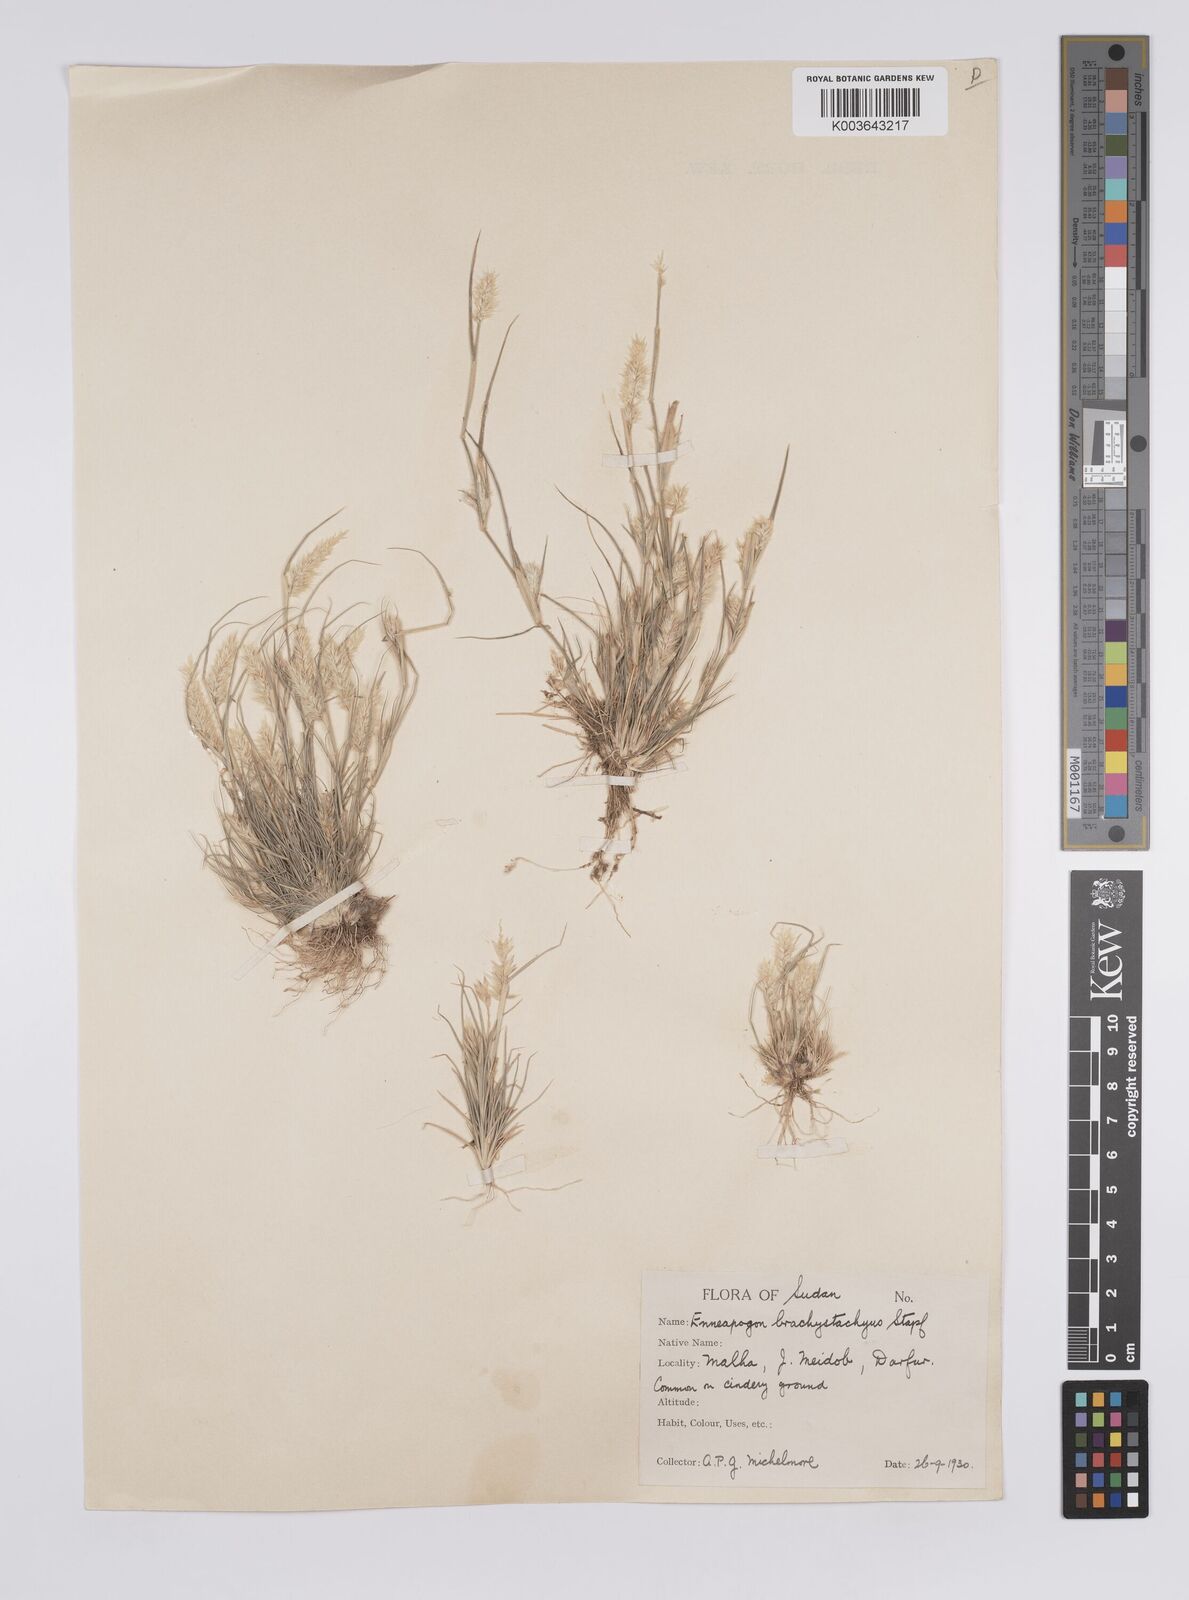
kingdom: Plantae
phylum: Tracheophyta
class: Liliopsida
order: Poales
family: Poaceae
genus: Enneapogon
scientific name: Enneapogon desvauxii
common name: Feather pappus grass
